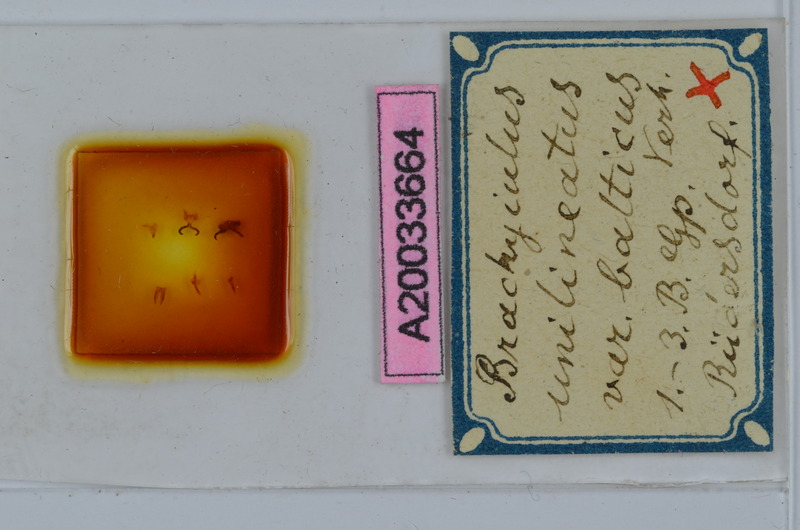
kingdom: Animalia
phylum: Arthropoda
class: Diplopoda
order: Julida
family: Julidae
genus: Megaphyllum
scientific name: Megaphyllum unilineatum
